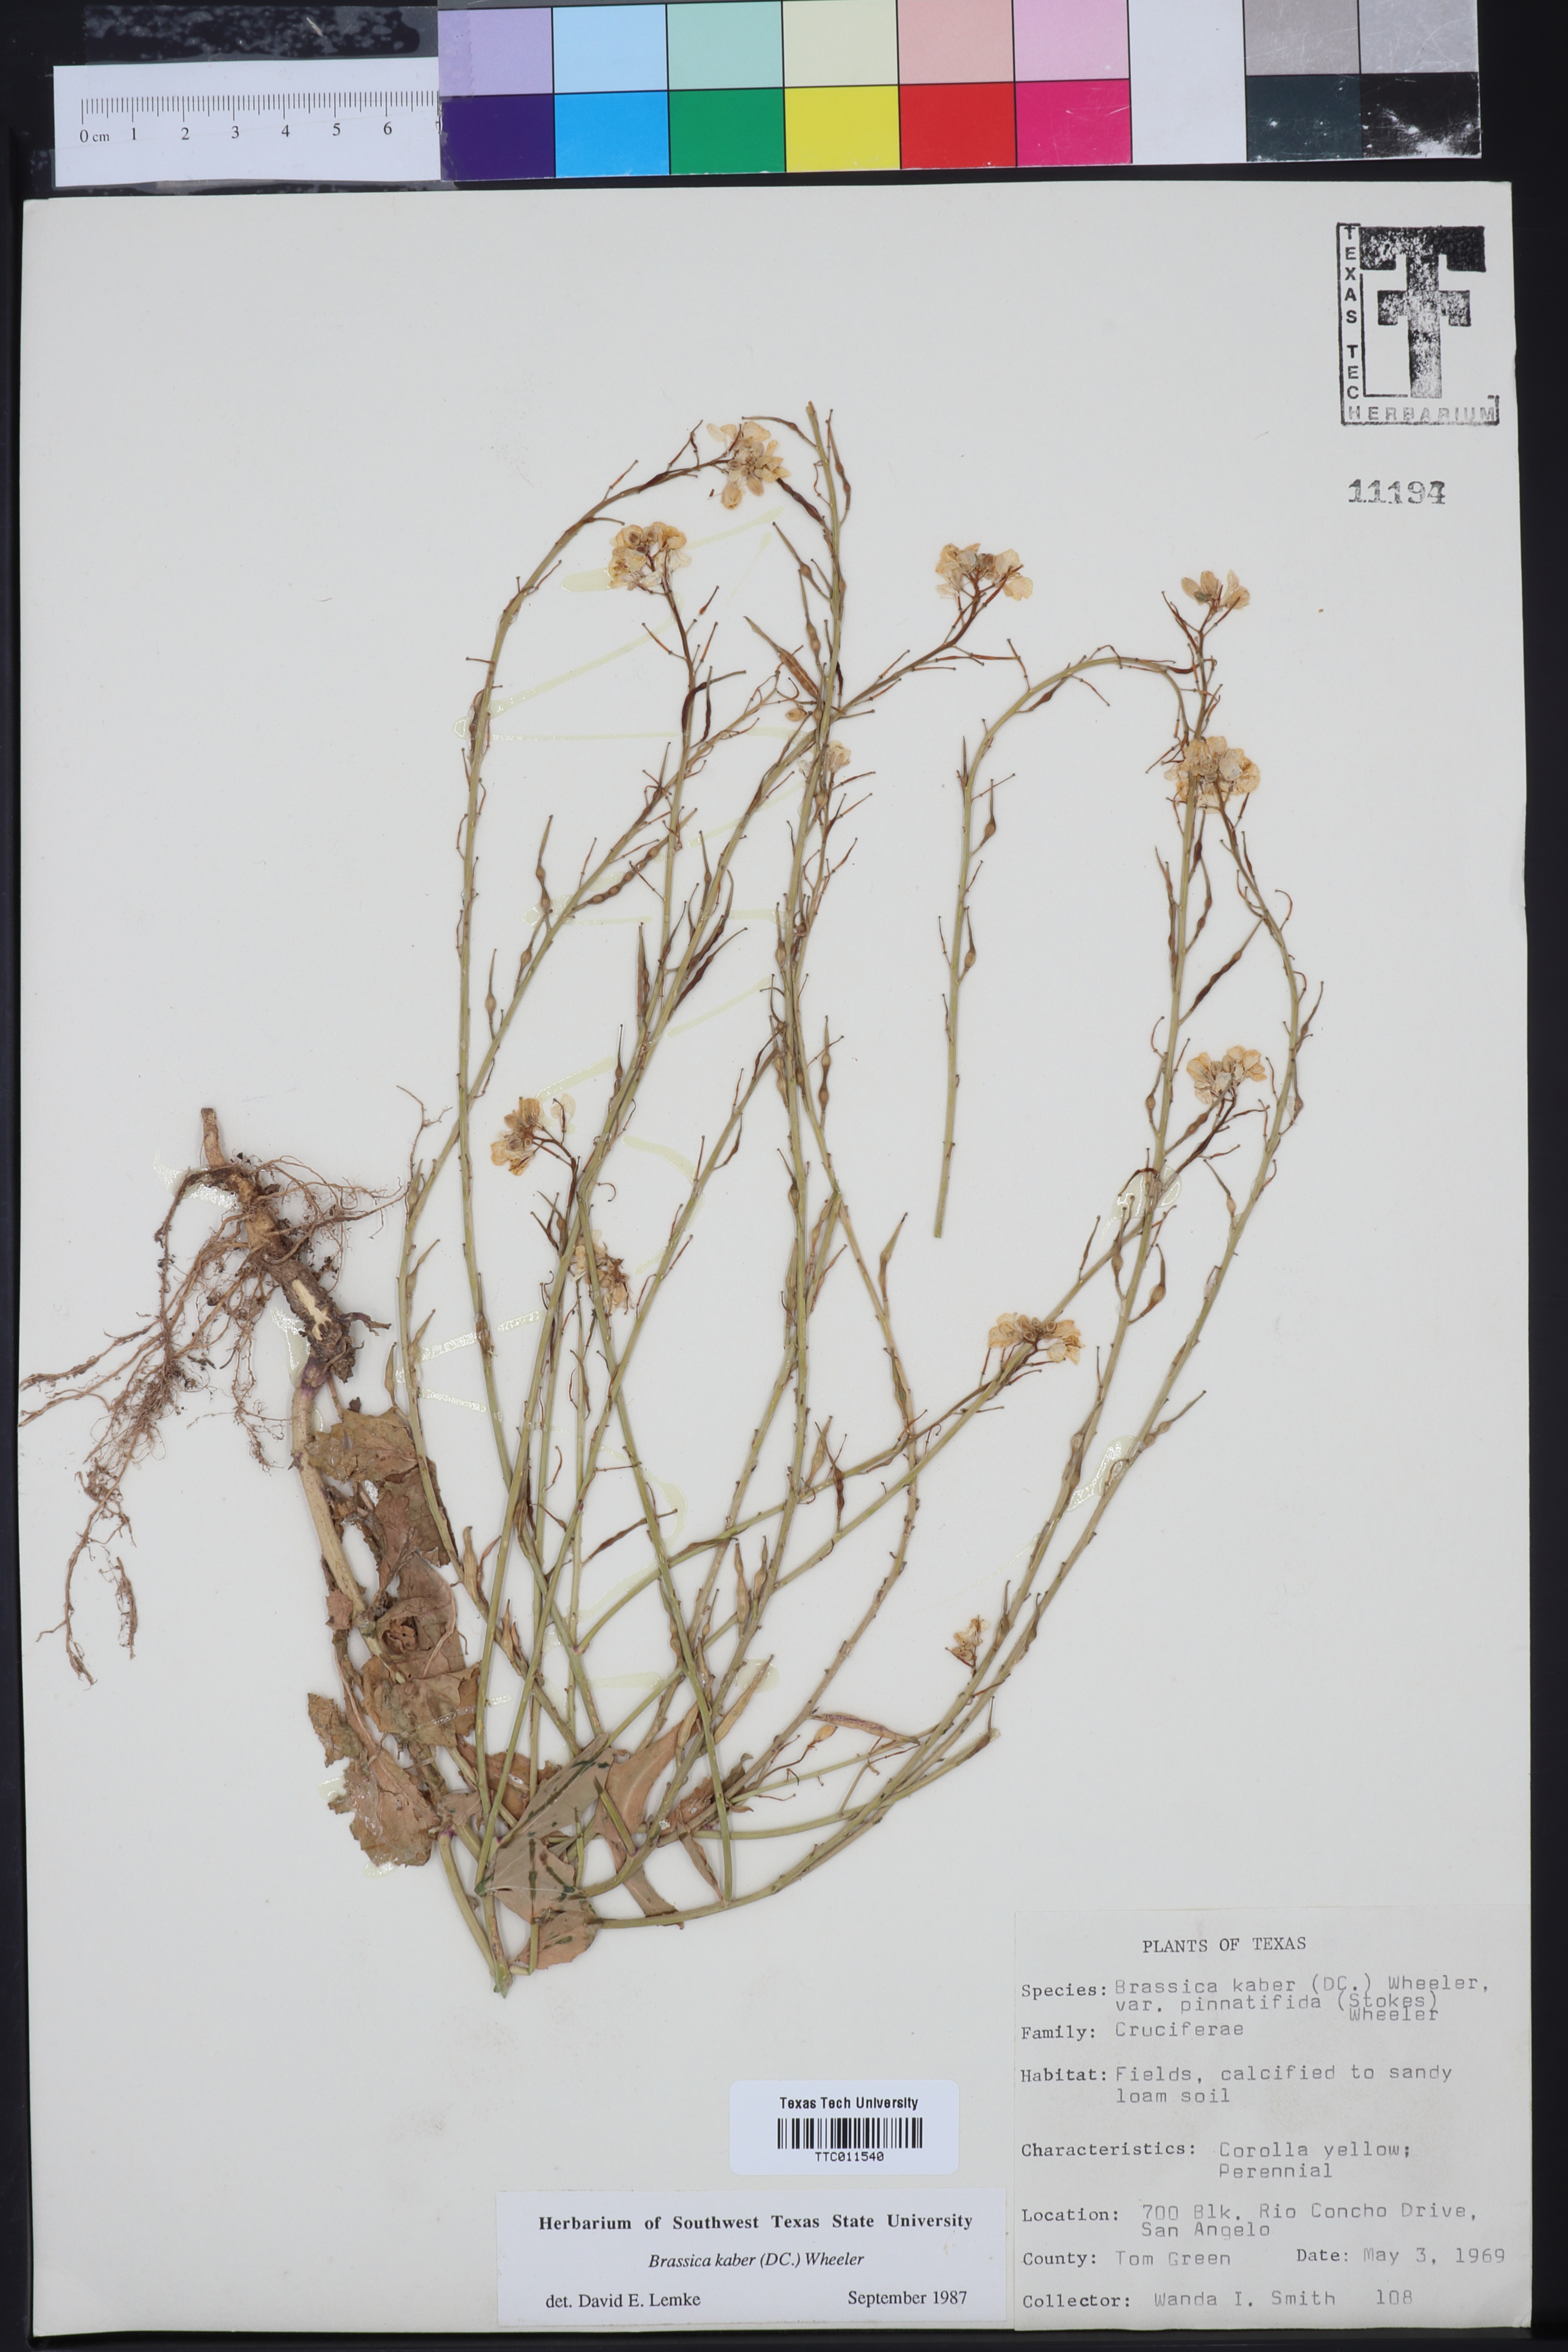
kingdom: Plantae
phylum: Tracheophyta
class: Magnoliopsida
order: Brassicales
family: Brassicaceae
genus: Sinapis
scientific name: Sinapis arvensis
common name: Charlock
